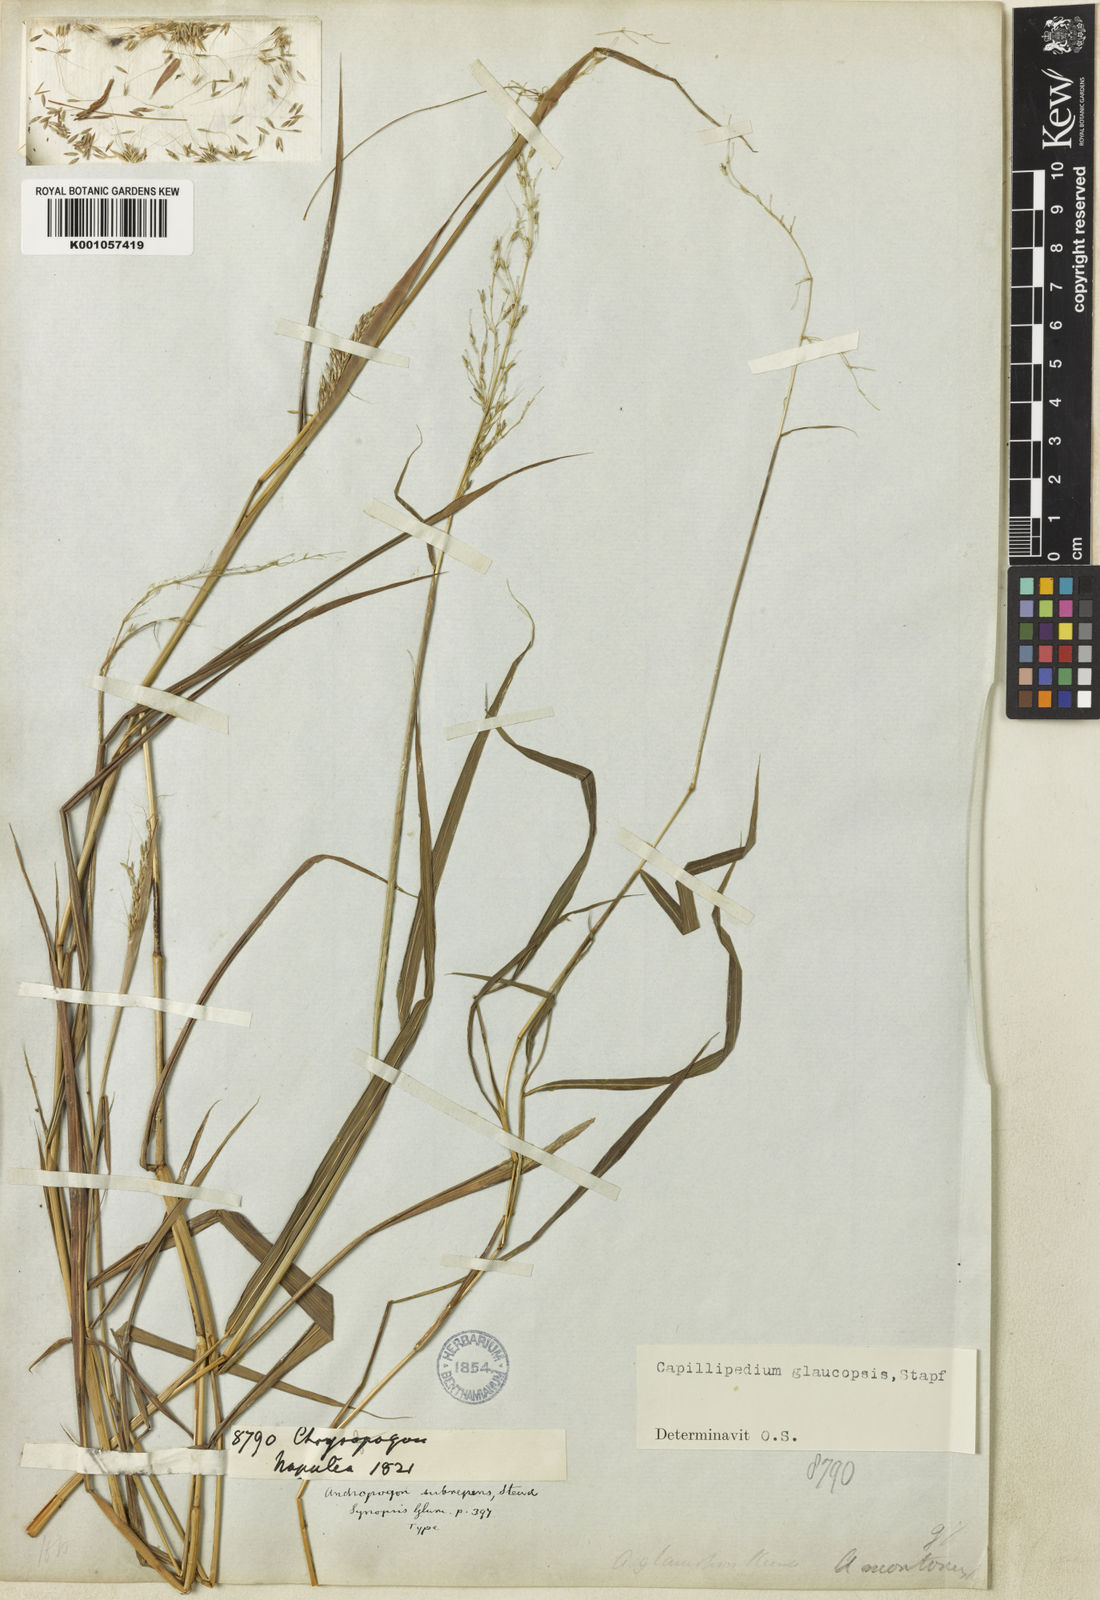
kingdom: Plantae
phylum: Tracheophyta
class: Liliopsida
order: Poales
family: Poaceae
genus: Capillipedium
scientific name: Capillipedium assimile
